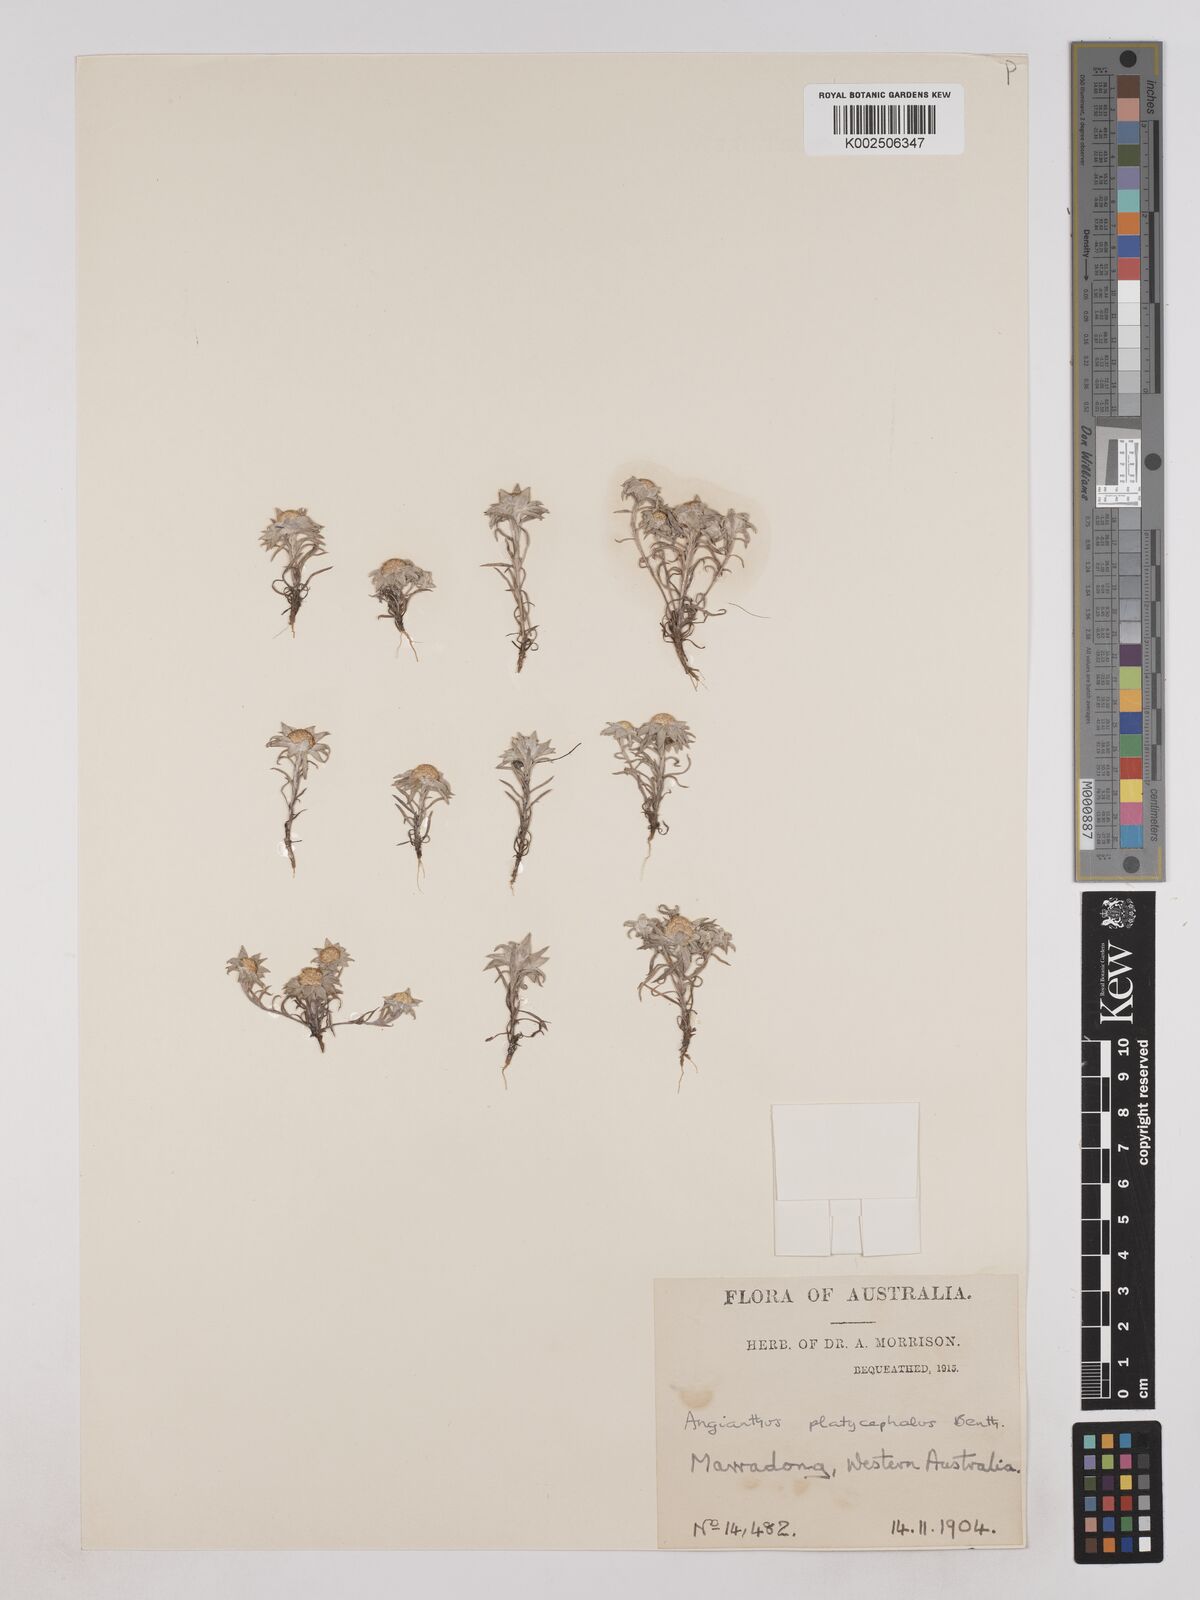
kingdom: Plantae
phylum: Tracheophyta
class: Magnoliopsida
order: Asterales
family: Asteraceae
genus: Angianthus
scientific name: Angianthus
